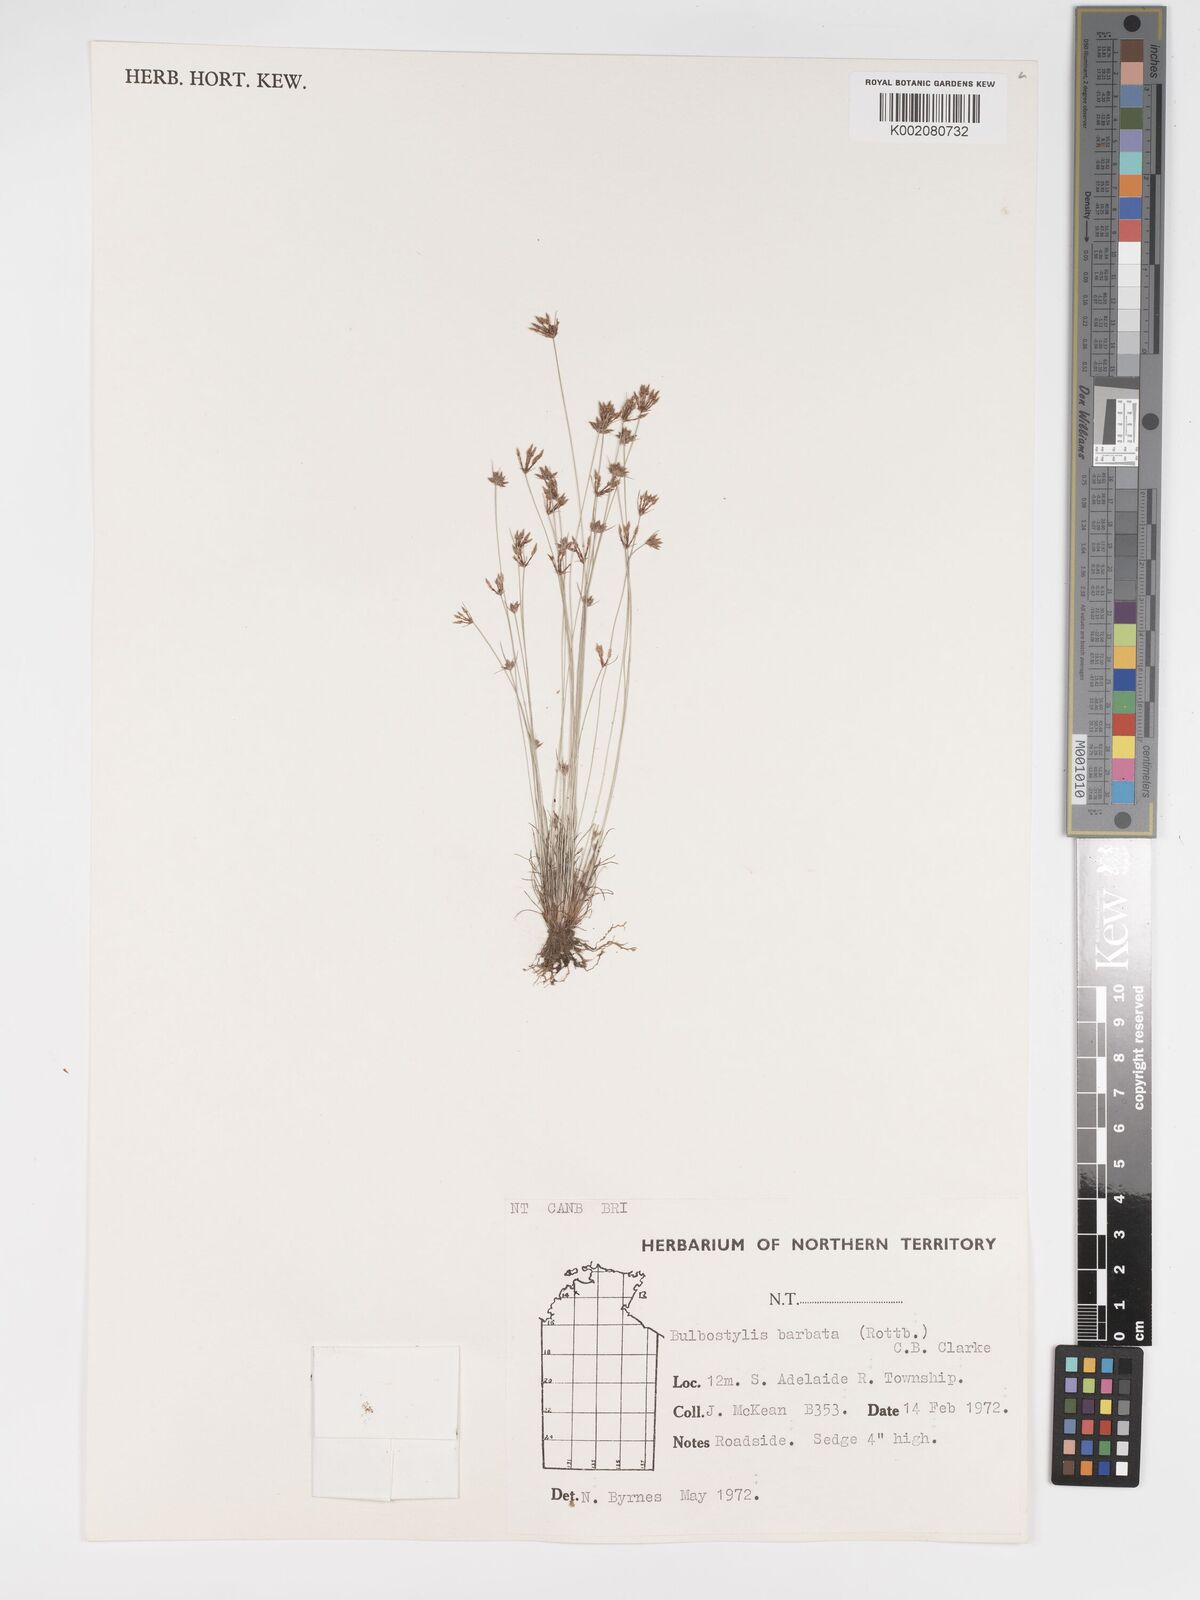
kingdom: Plantae
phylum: Tracheophyta
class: Liliopsida
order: Poales
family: Cyperaceae
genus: Bulbostylis
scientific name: Bulbostylis barbata
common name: Watergrass
